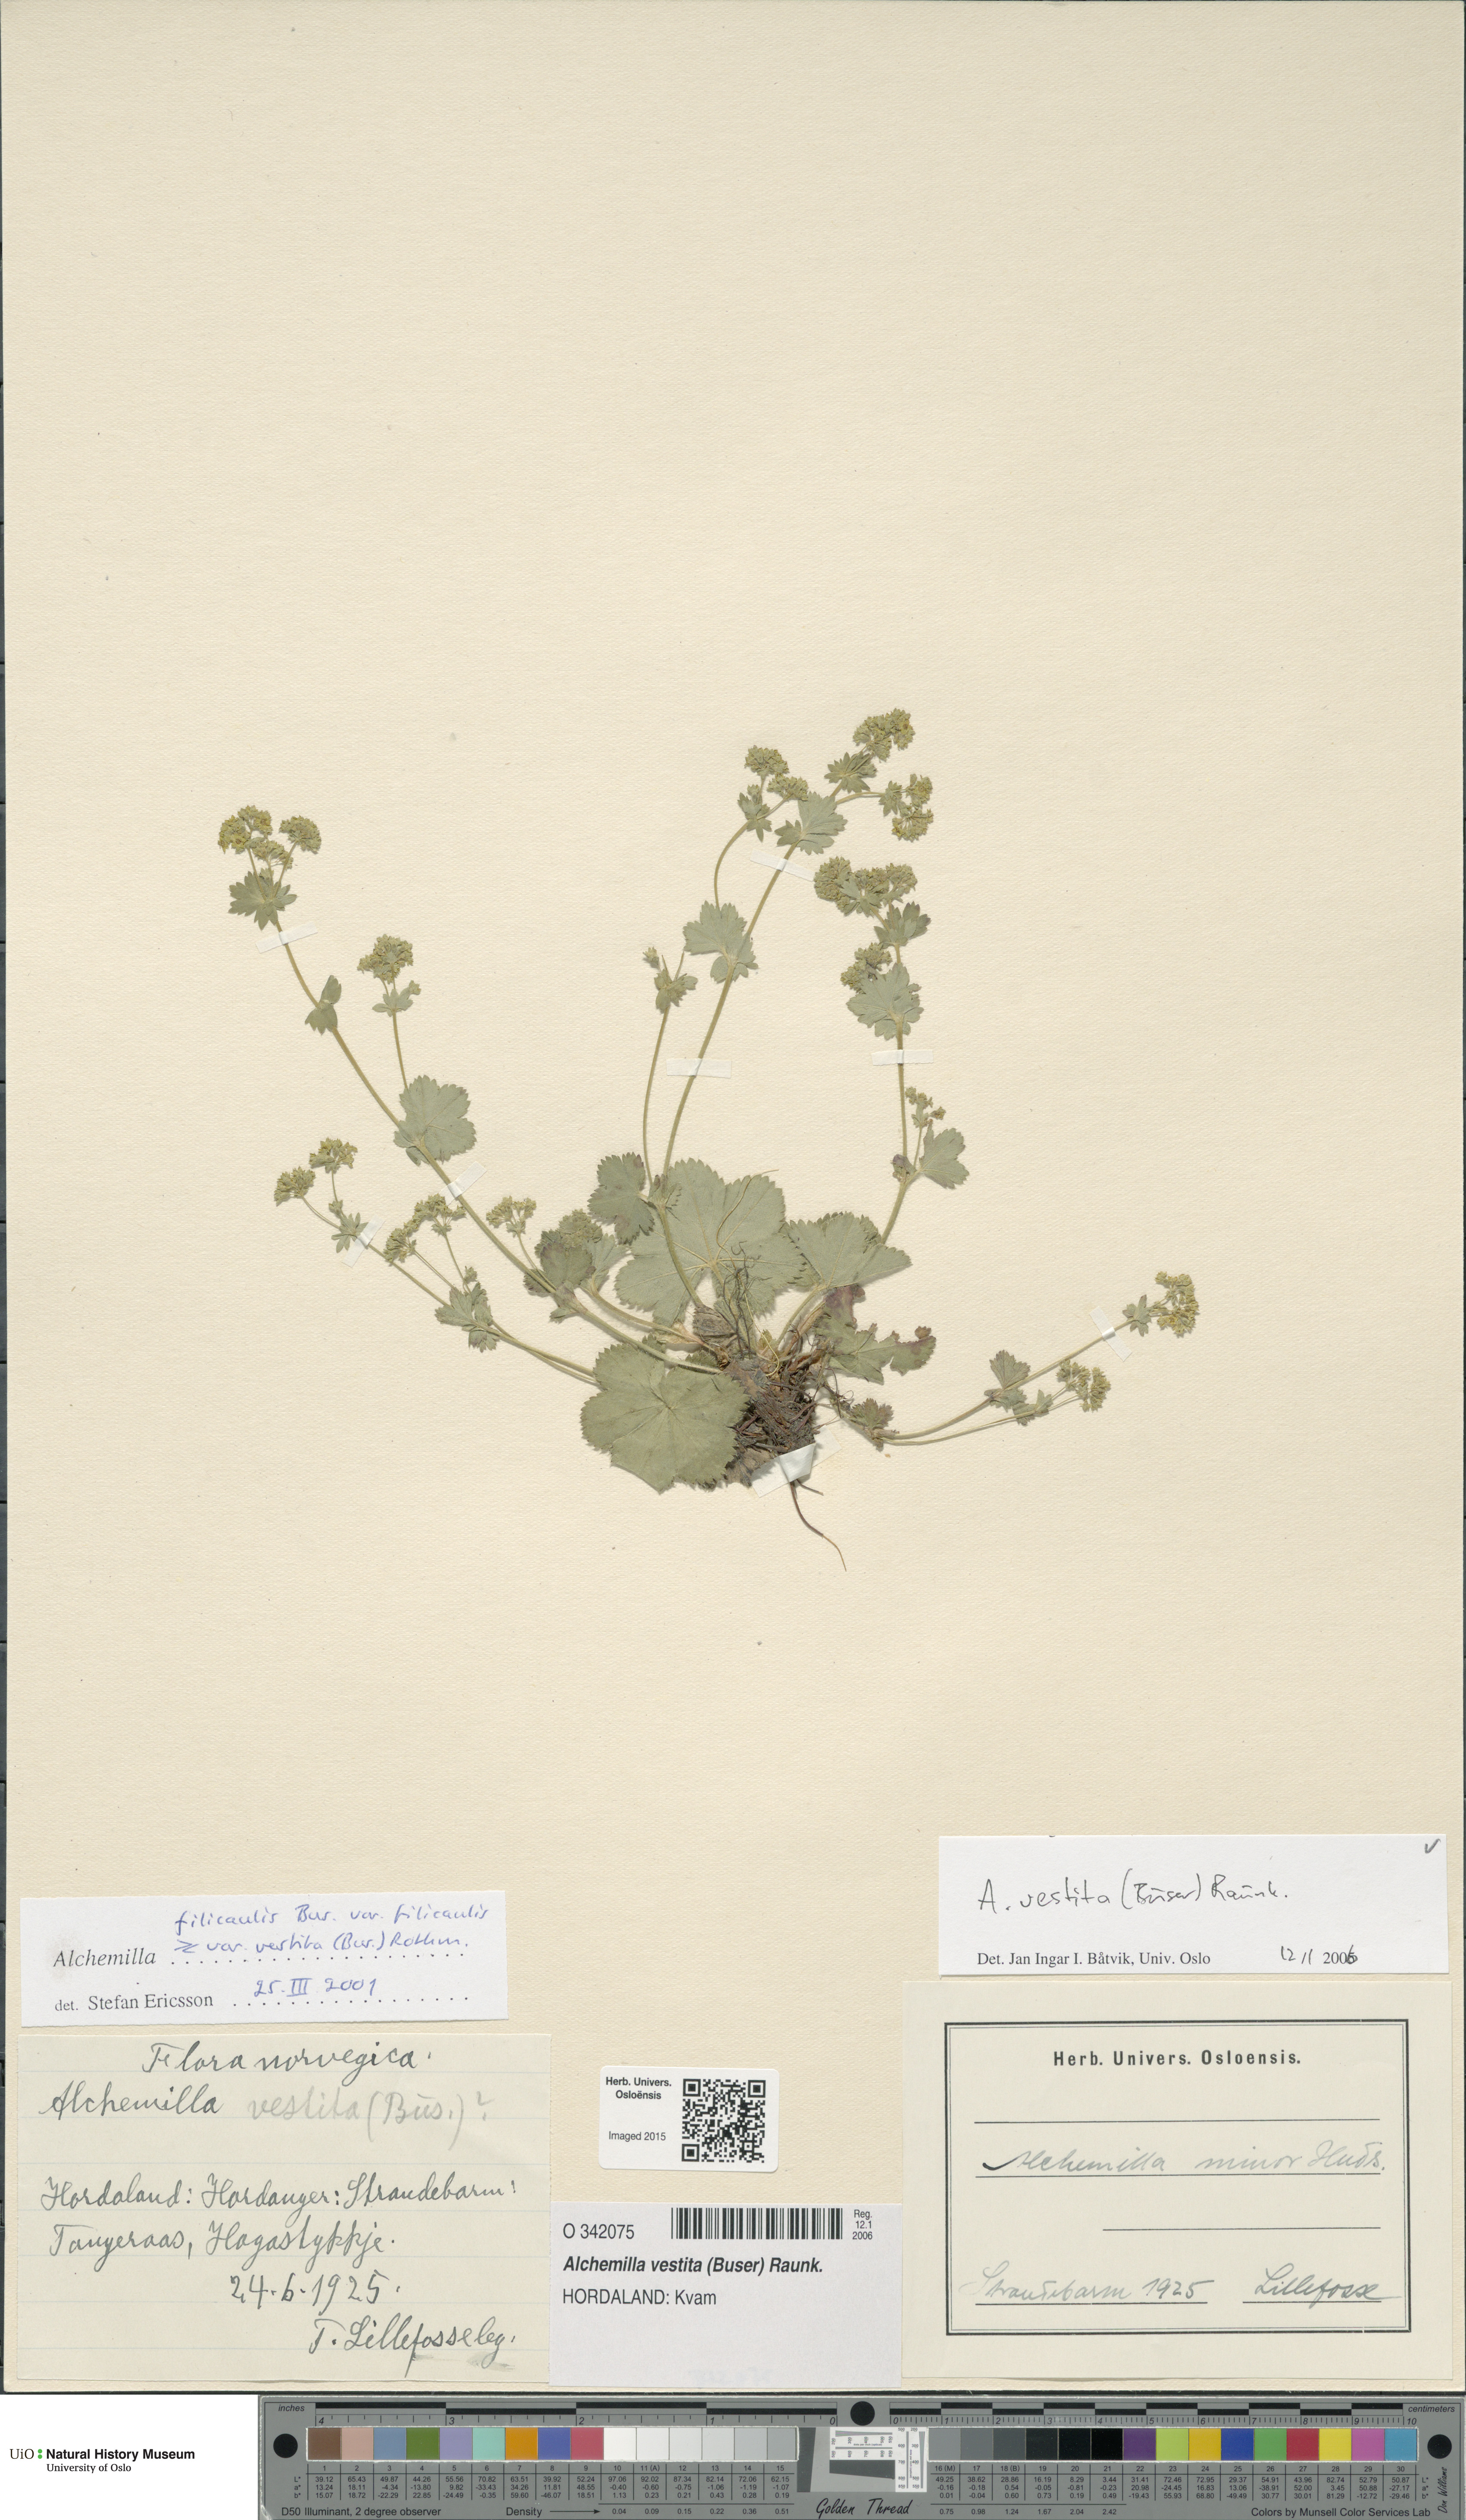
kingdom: Plantae
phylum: Tracheophyta
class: Magnoliopsida
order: Rosales
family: Rosaceae
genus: Alchemilla
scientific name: Alchemilla filicaulis
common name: Hairy lady's-mantle
